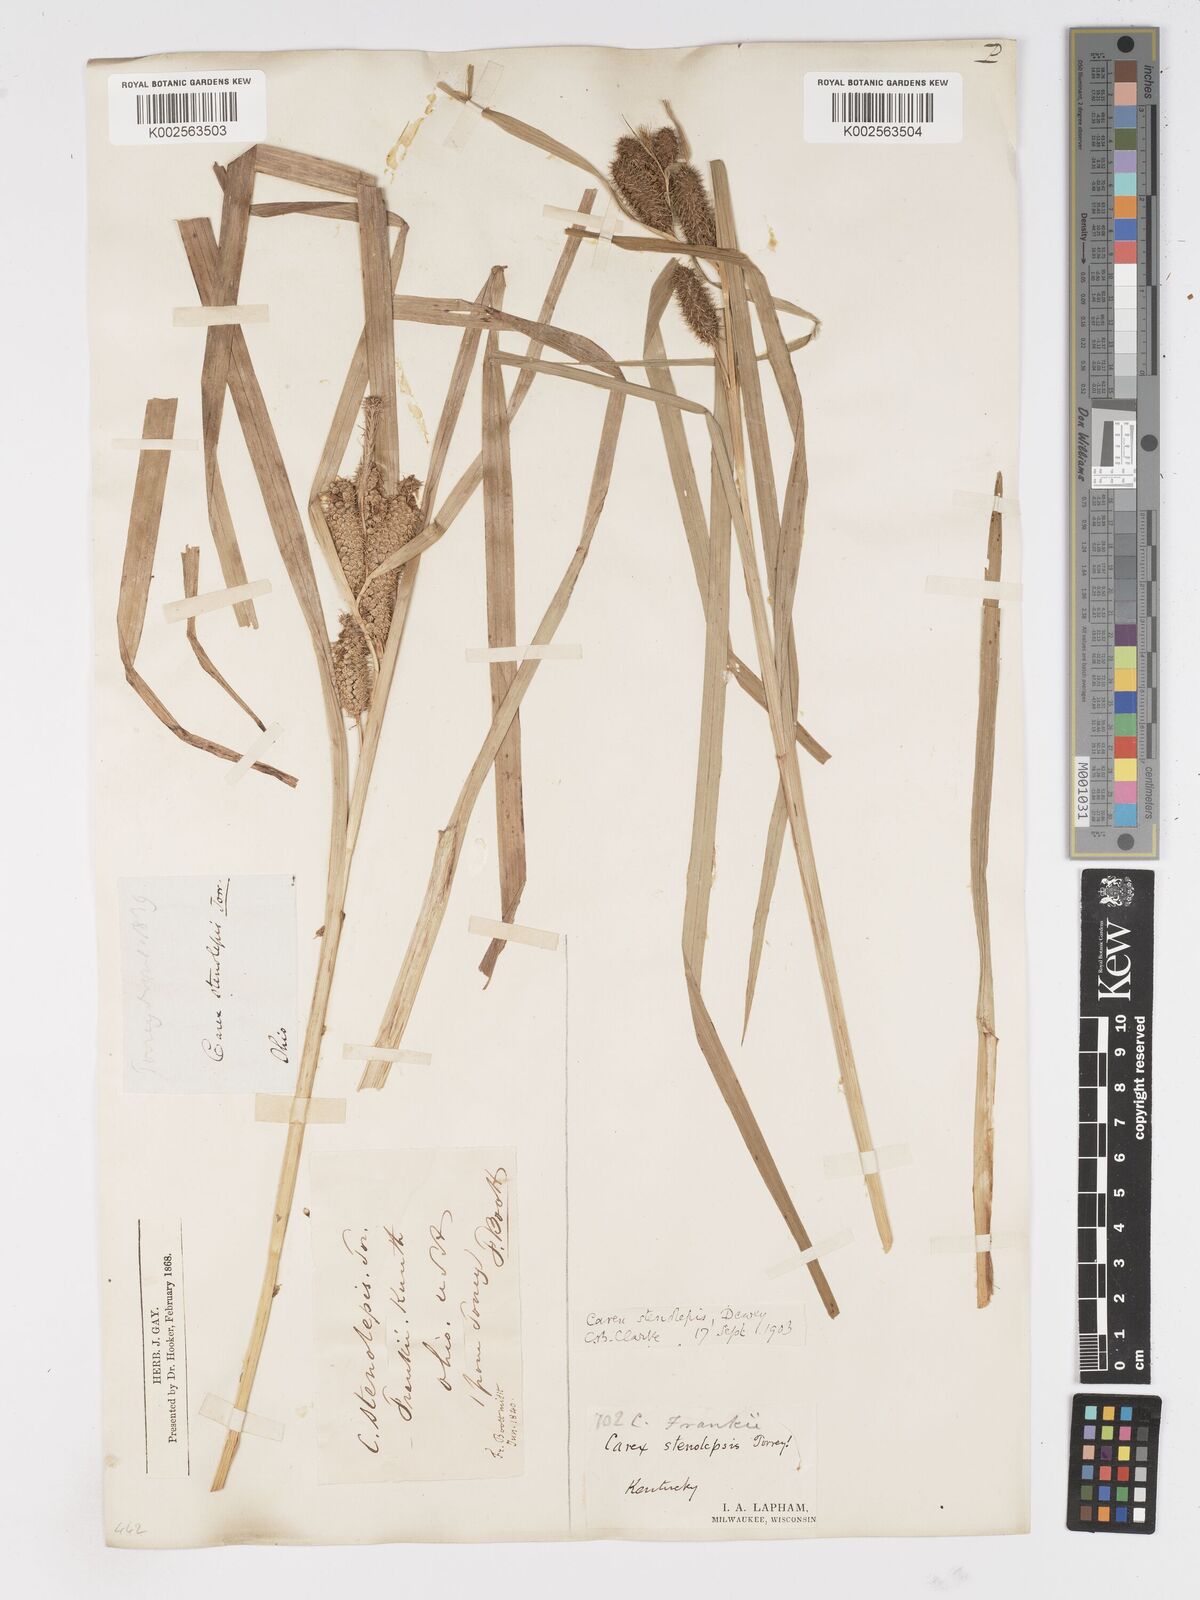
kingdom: Plantae
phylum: Tracheophyta
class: Liliopsida
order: Poales
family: Cyperaceae
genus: Carex
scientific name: Carex frankii
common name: Frank's sedge
